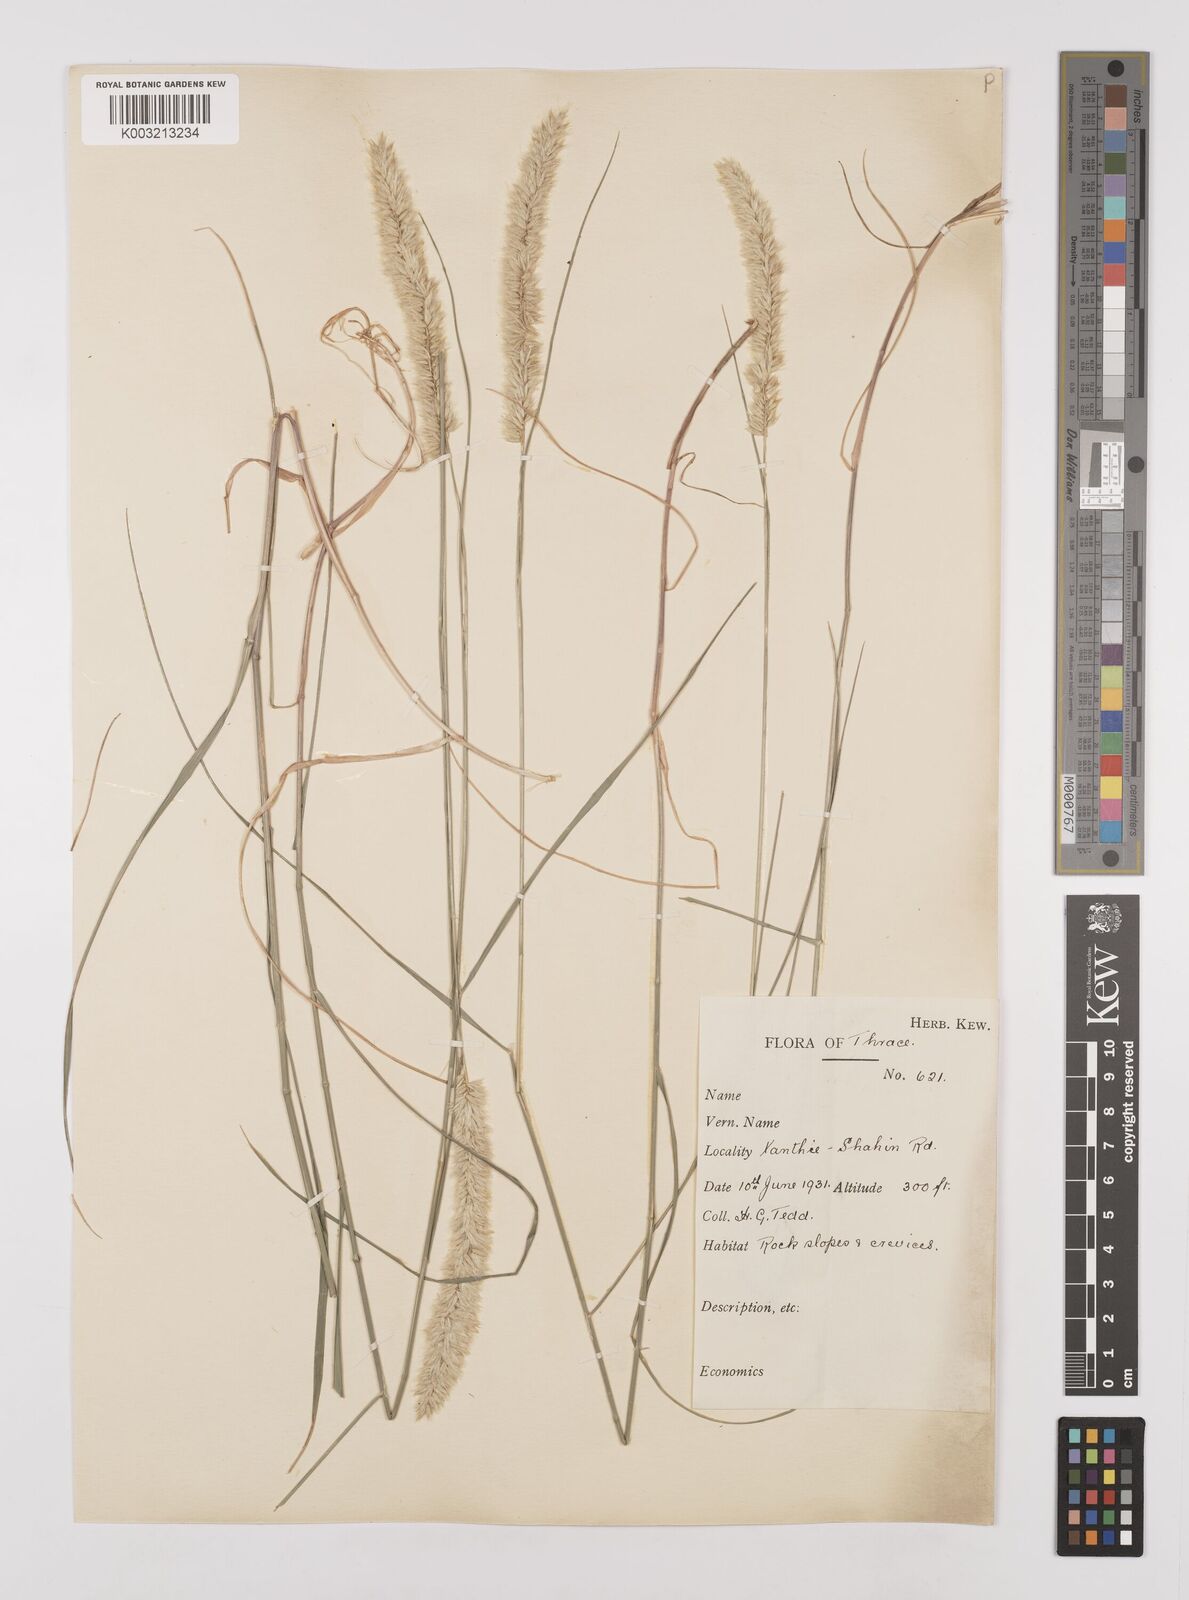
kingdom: Plantae
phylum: Tracheophyta
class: Liliopsida
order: Poales
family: Poaceae
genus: Melica
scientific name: Melica ciliata
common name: Hairy melicgrass
